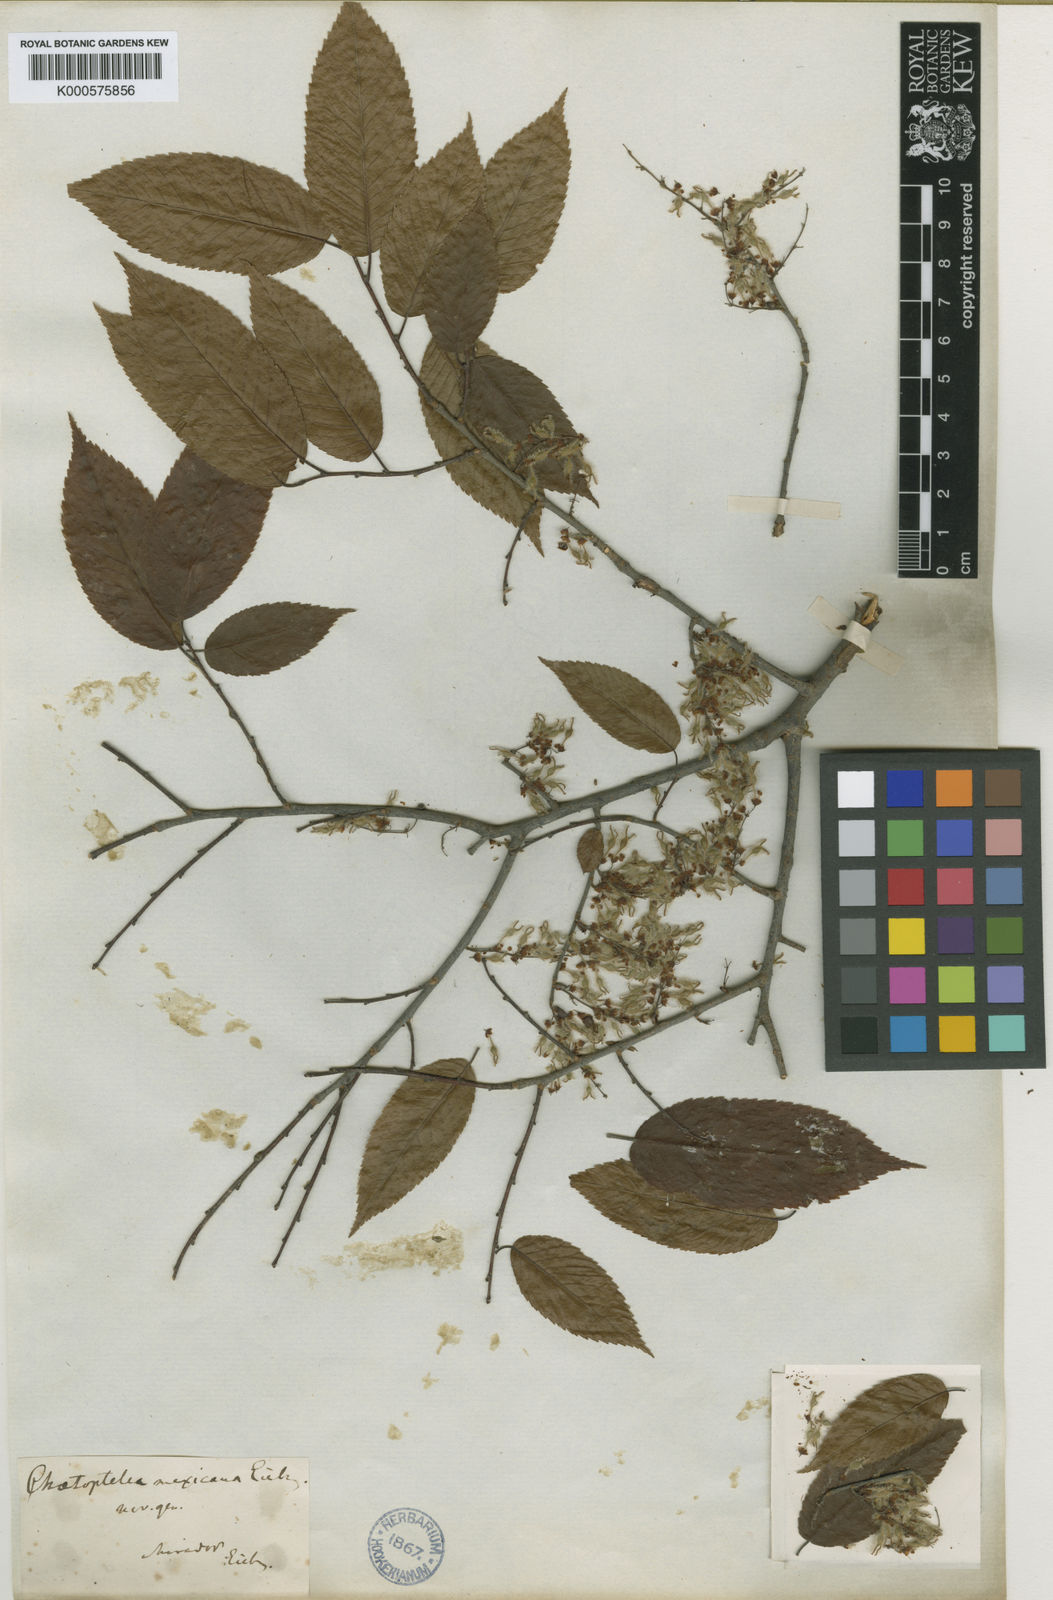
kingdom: Plantae
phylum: Tracheophyta
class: Magnoliopsida
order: Rosales
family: Ulmaceae
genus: Ulmus
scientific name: Ulmus mexicana
